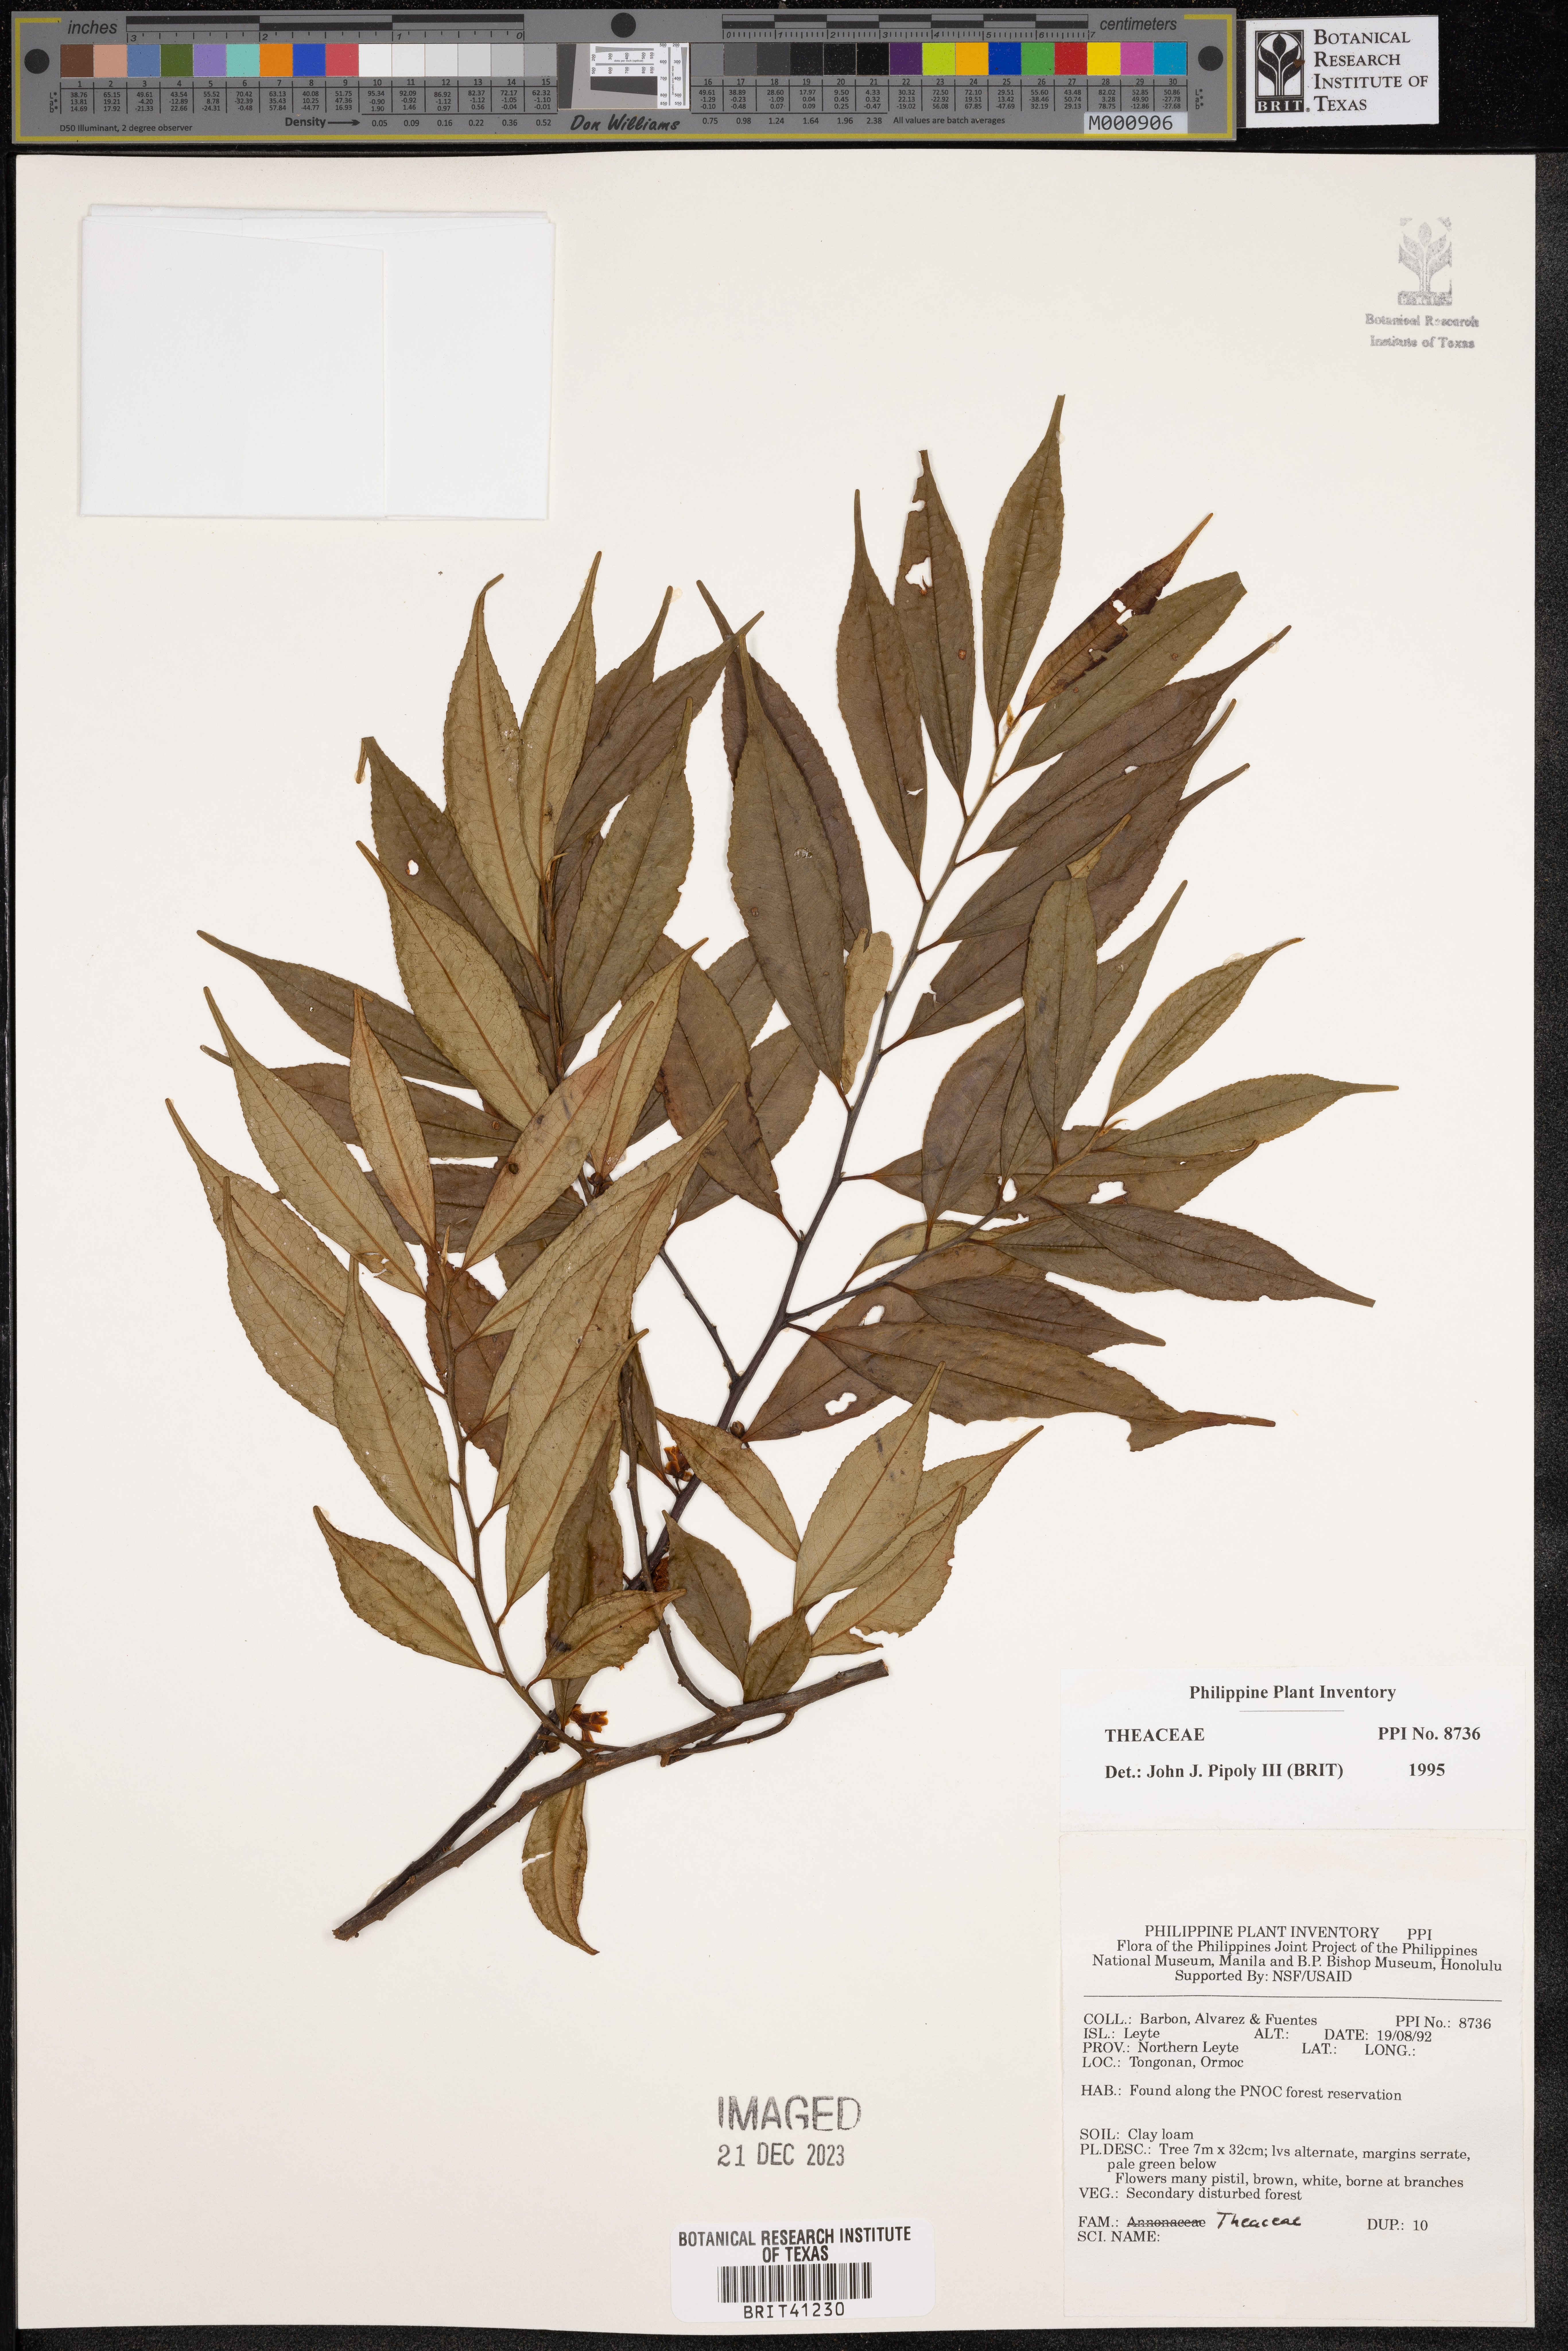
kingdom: Plantae
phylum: Tracheophyta
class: Magnoliopsida
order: Ericales
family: Theaceae
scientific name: Theaceae
